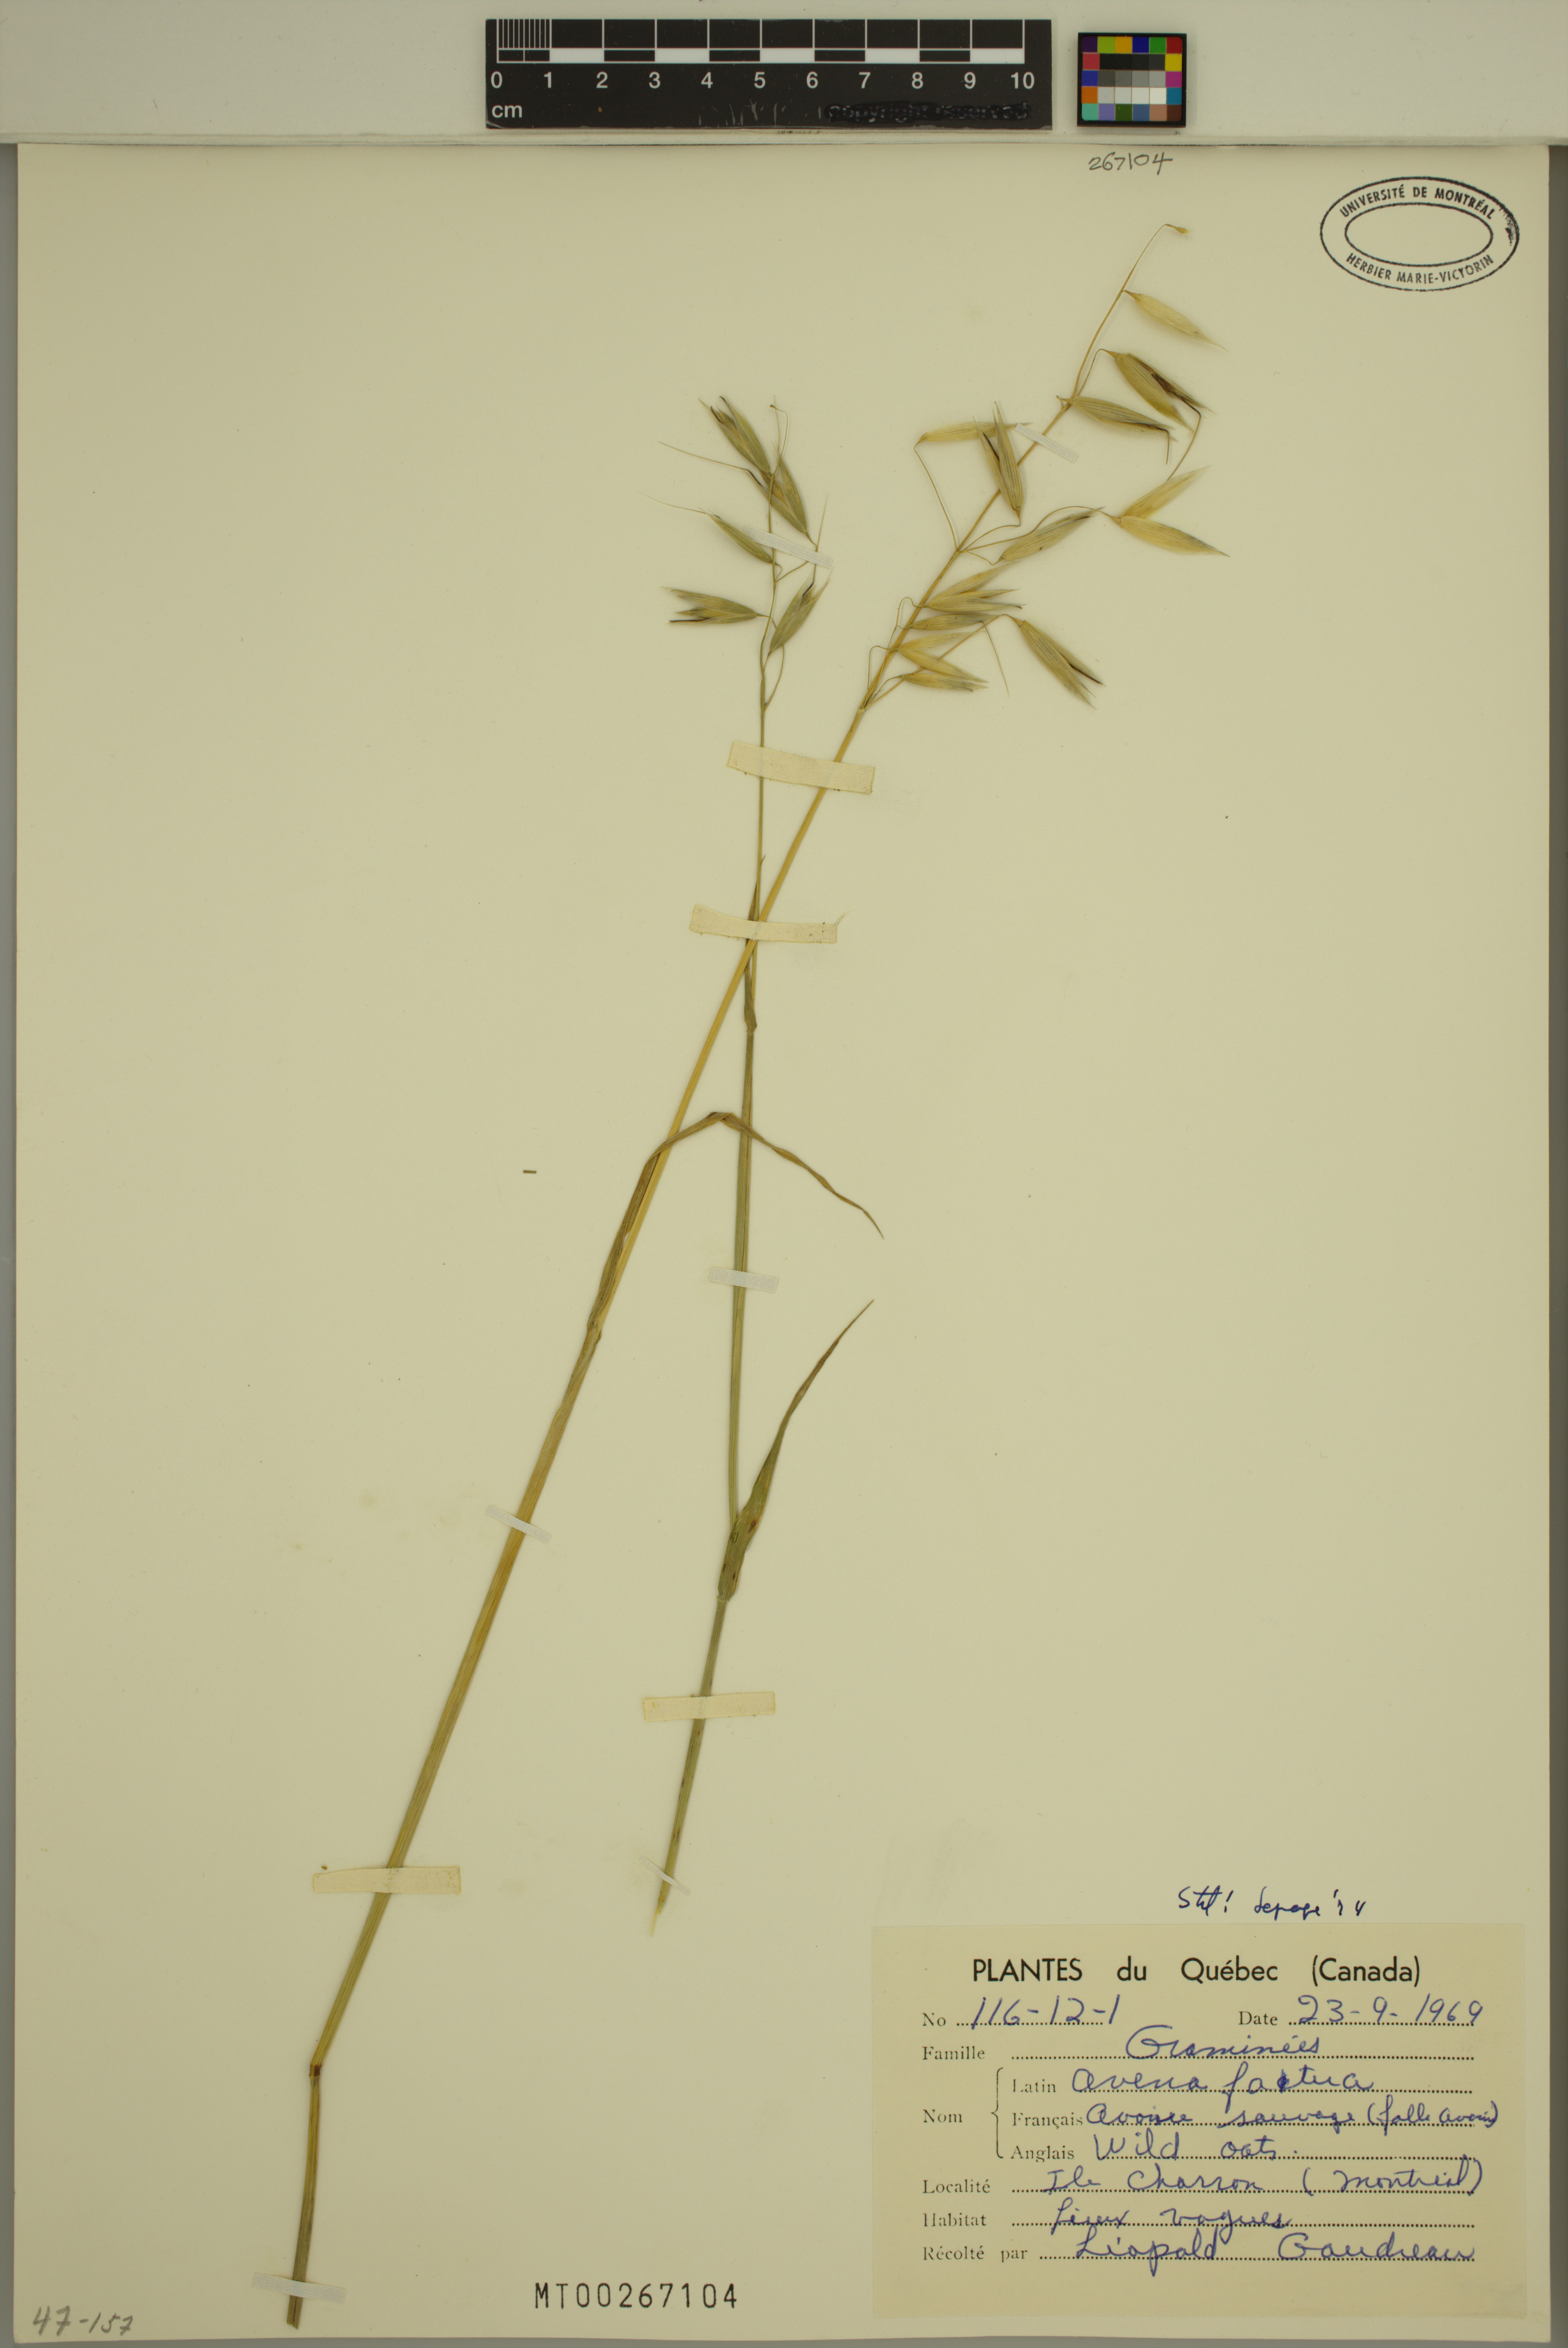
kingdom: Plantae
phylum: Tracheophyta
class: Liliopsida
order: Poales
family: Poaceae
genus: Avena
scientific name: Avena fatua
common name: Wild oat
